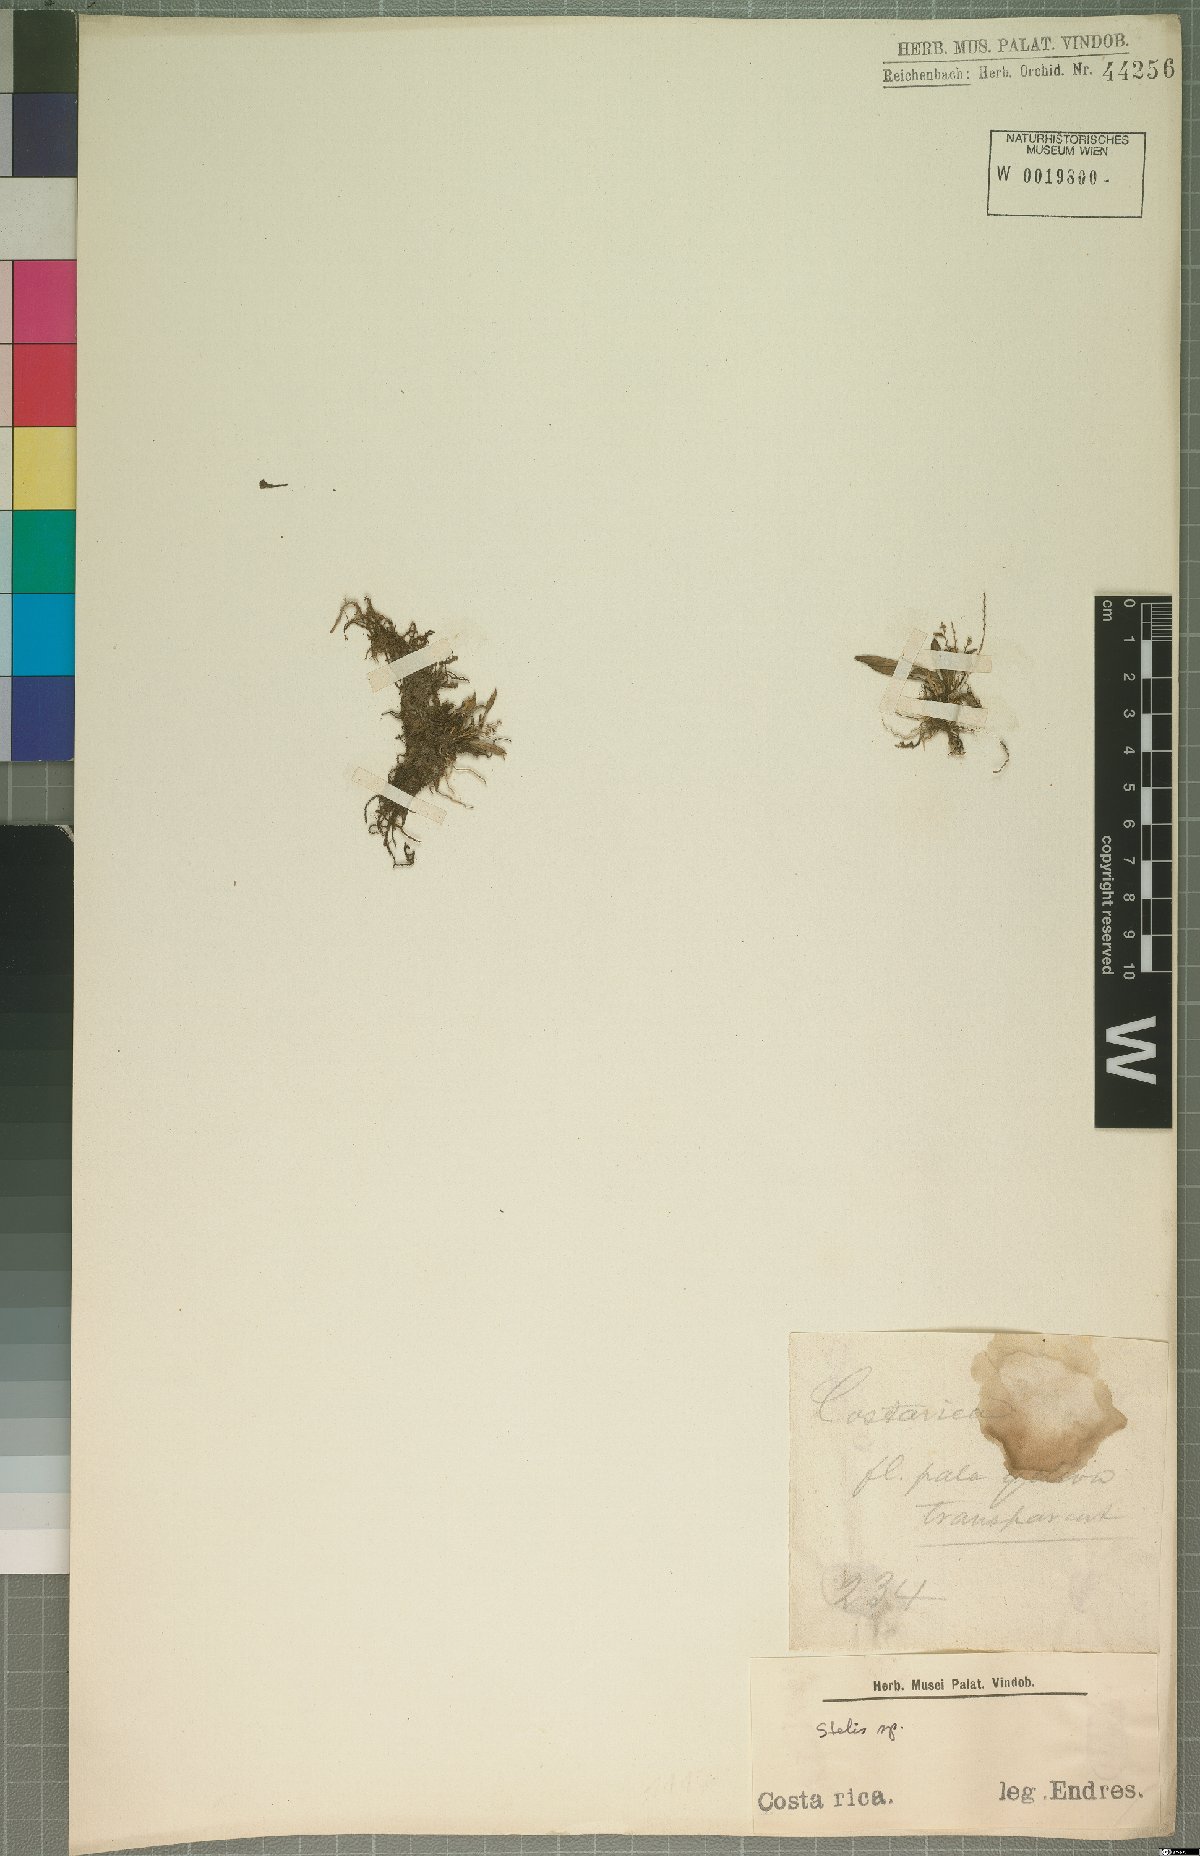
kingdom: Plantae
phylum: Tracheophyta
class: Liliopsida
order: Asparagales
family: Orchidaceae
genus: Stelis
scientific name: Stelis
